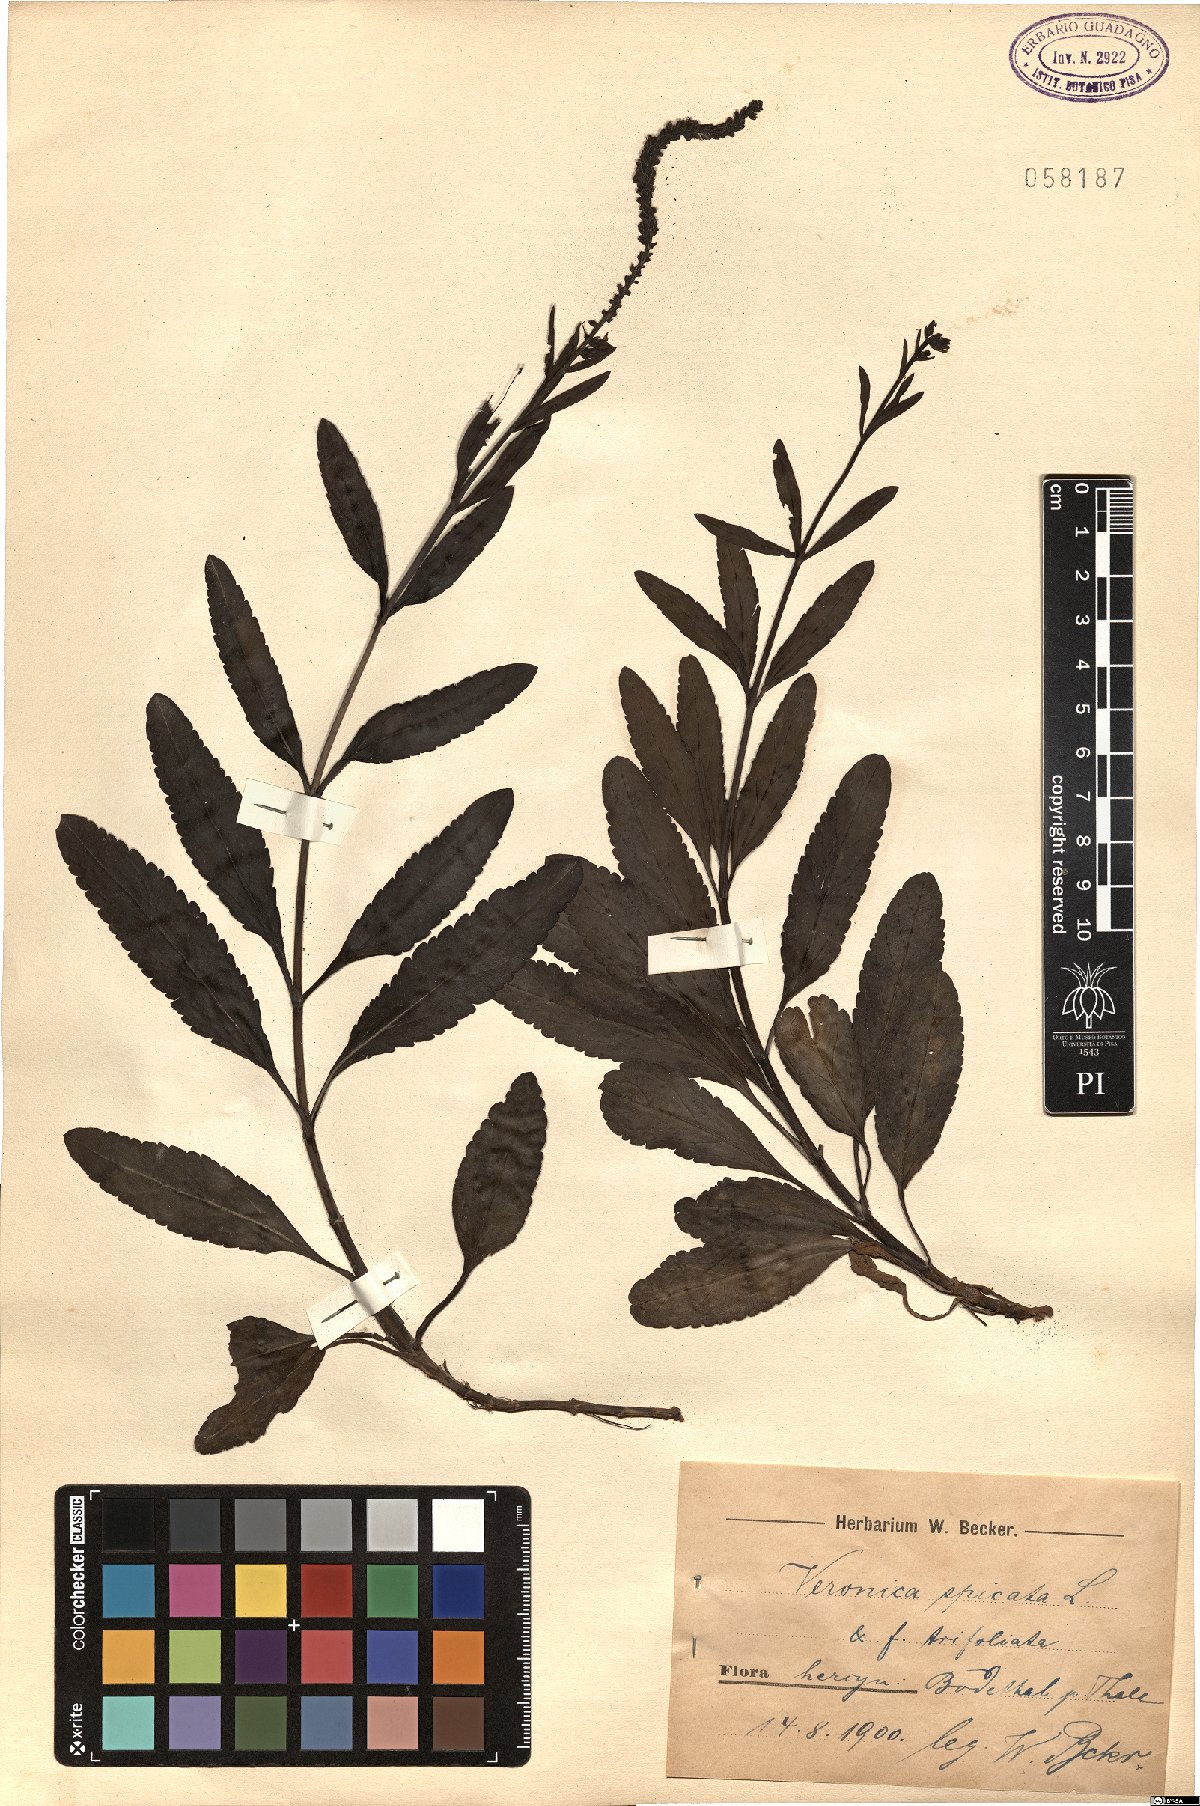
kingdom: Plantae
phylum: Tracheophyta
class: Magnoliopsida
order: Lamiales
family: Plantaginaceae
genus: Veronica
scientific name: Veronica spicata
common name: Spiked speedwell
